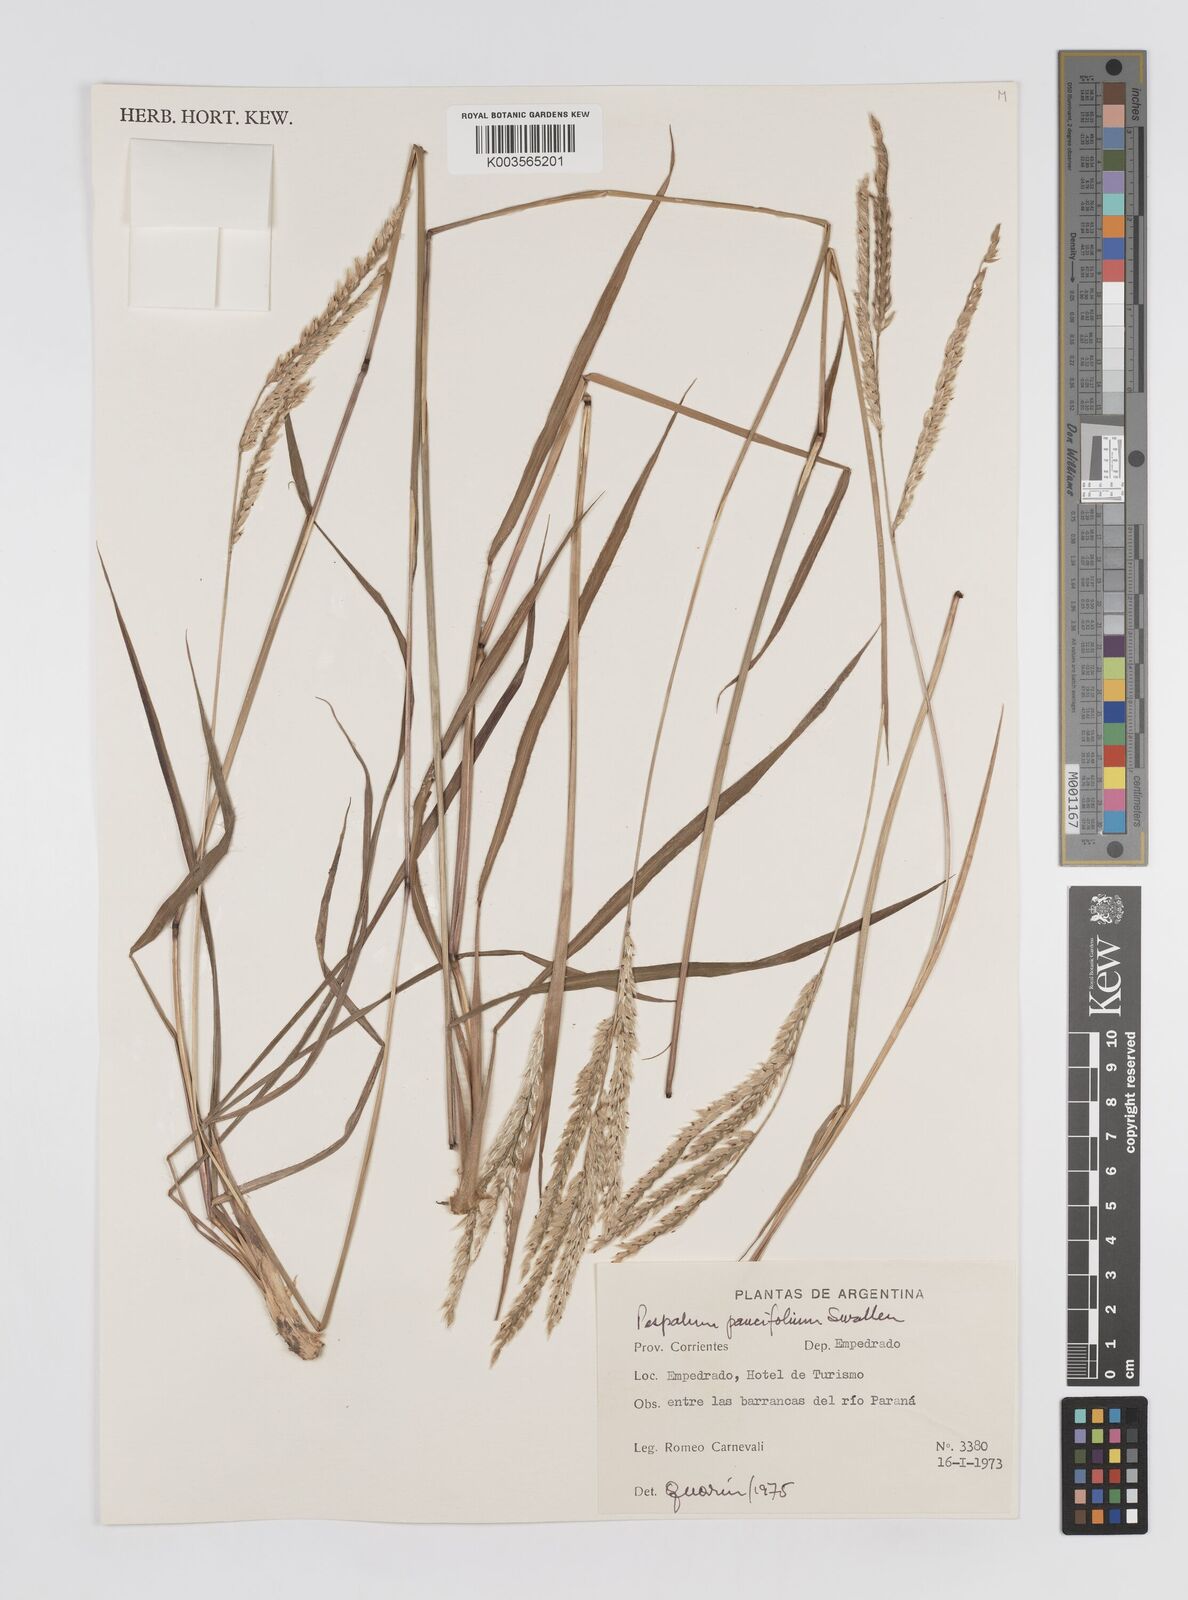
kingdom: Plantae
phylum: Tracheophyta
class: Liliopsida
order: Poales
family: Poaceae
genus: Paspalum
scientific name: Paspalum paucifolium
